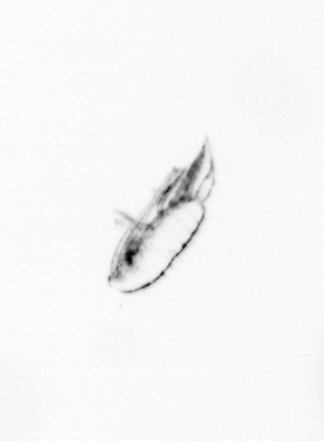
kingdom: Animalia
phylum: Arthropoda
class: Copepoda
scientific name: Copepoda
